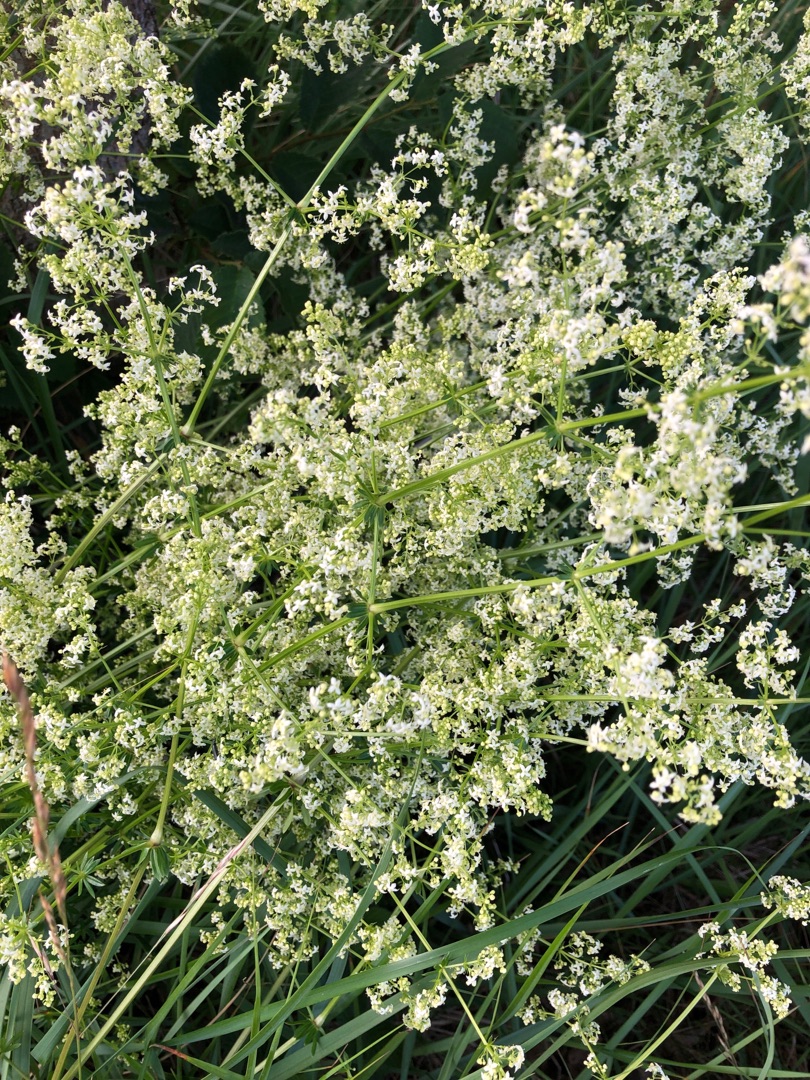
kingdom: Plantae
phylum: Tracheophyta
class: Magnoliopsida
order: Gentianales
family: Rubiaceae
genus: Galium
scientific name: Galium mollugo
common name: Hvid snerre
